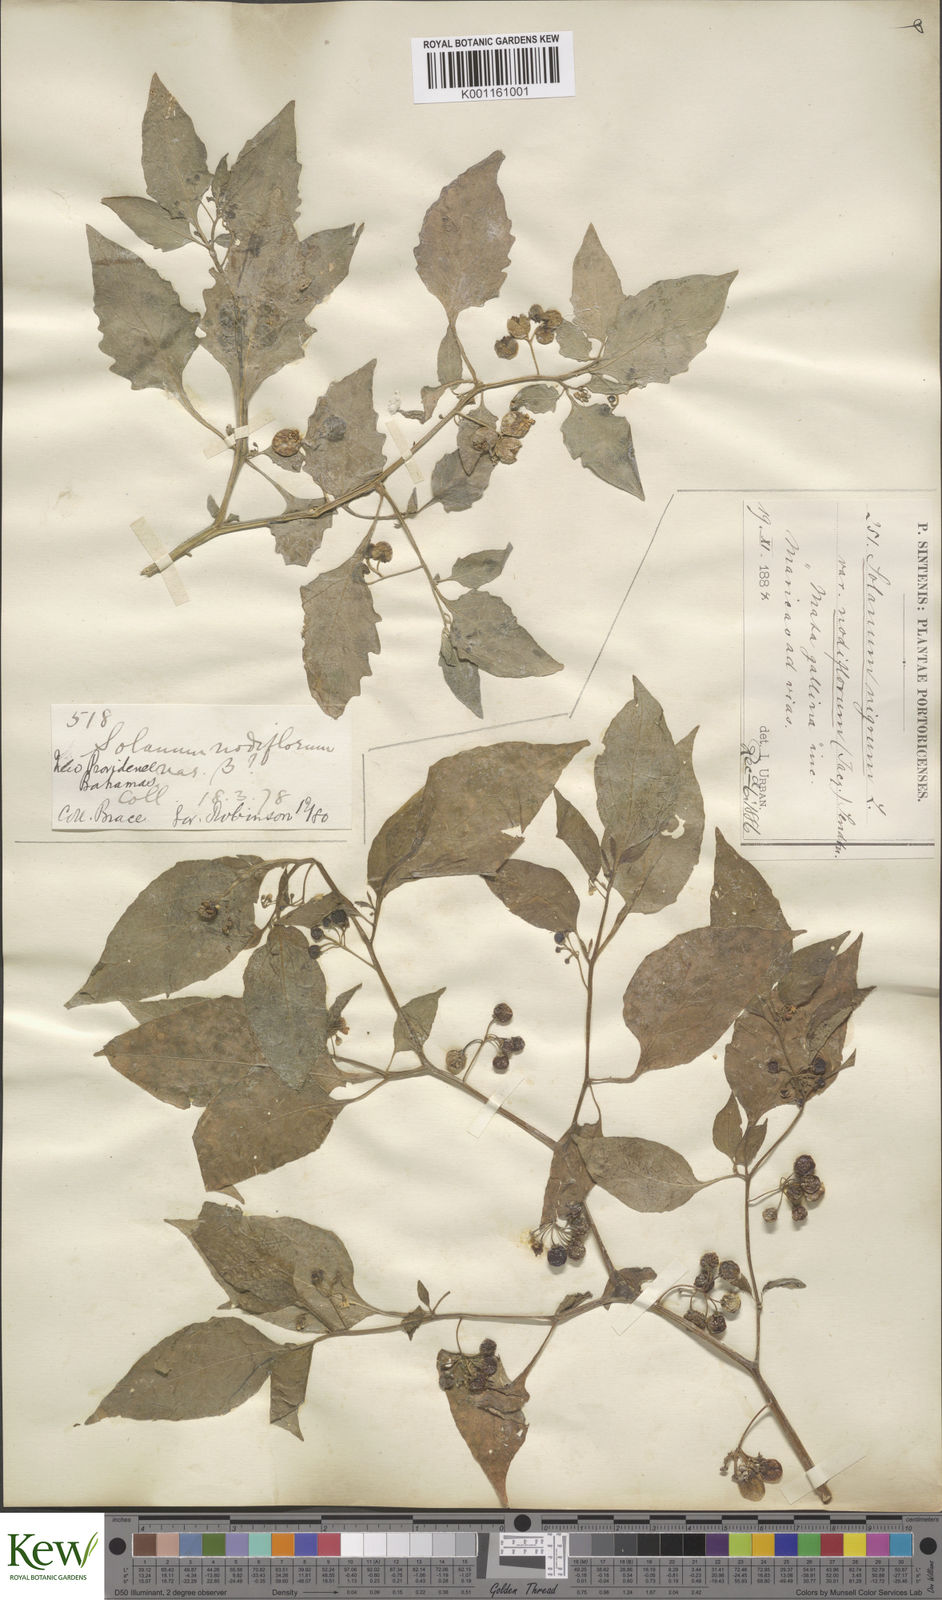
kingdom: Plantae
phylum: Tracheophyta
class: Magnoliopsida
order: Solanales
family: Solanaceae
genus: Solanum
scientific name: Solanum americanum
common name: American black nightshade
